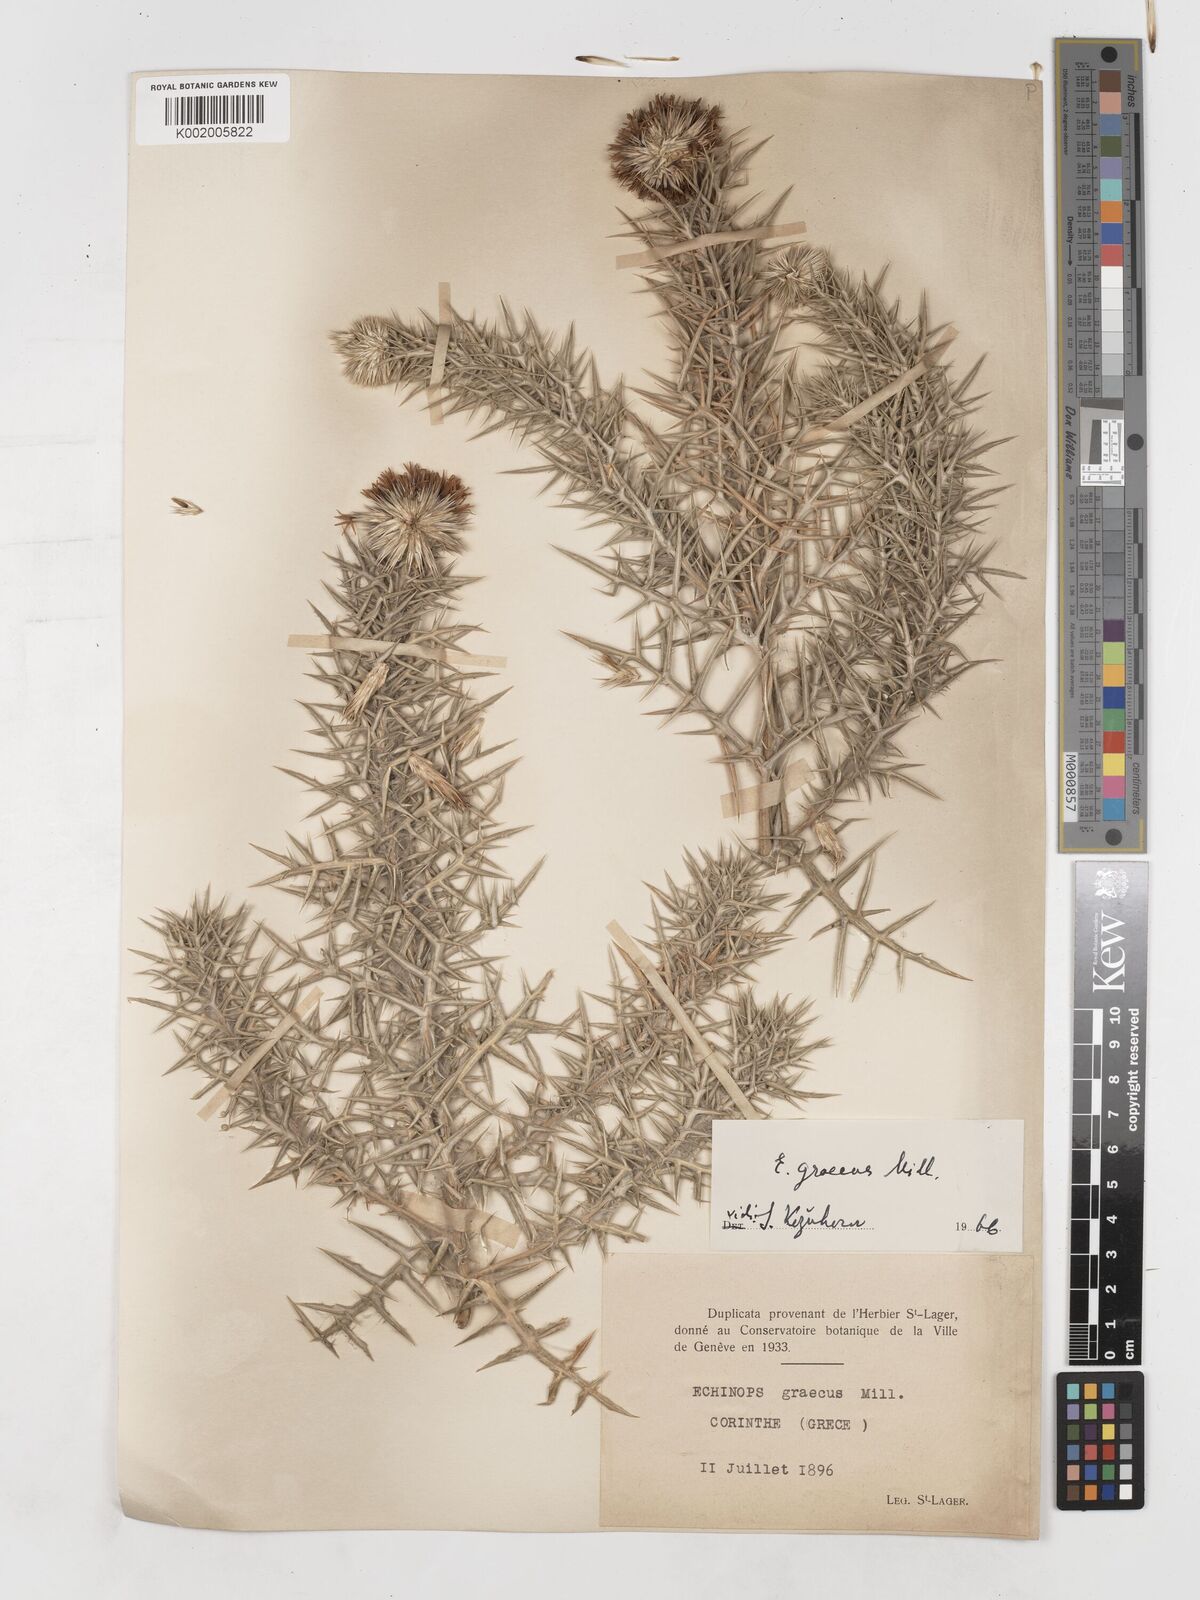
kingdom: Plantae
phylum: Tracheophyta
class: Magnoliopsida
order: Asterales
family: Asteraceae
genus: Echinops
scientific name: Echinops graecus
